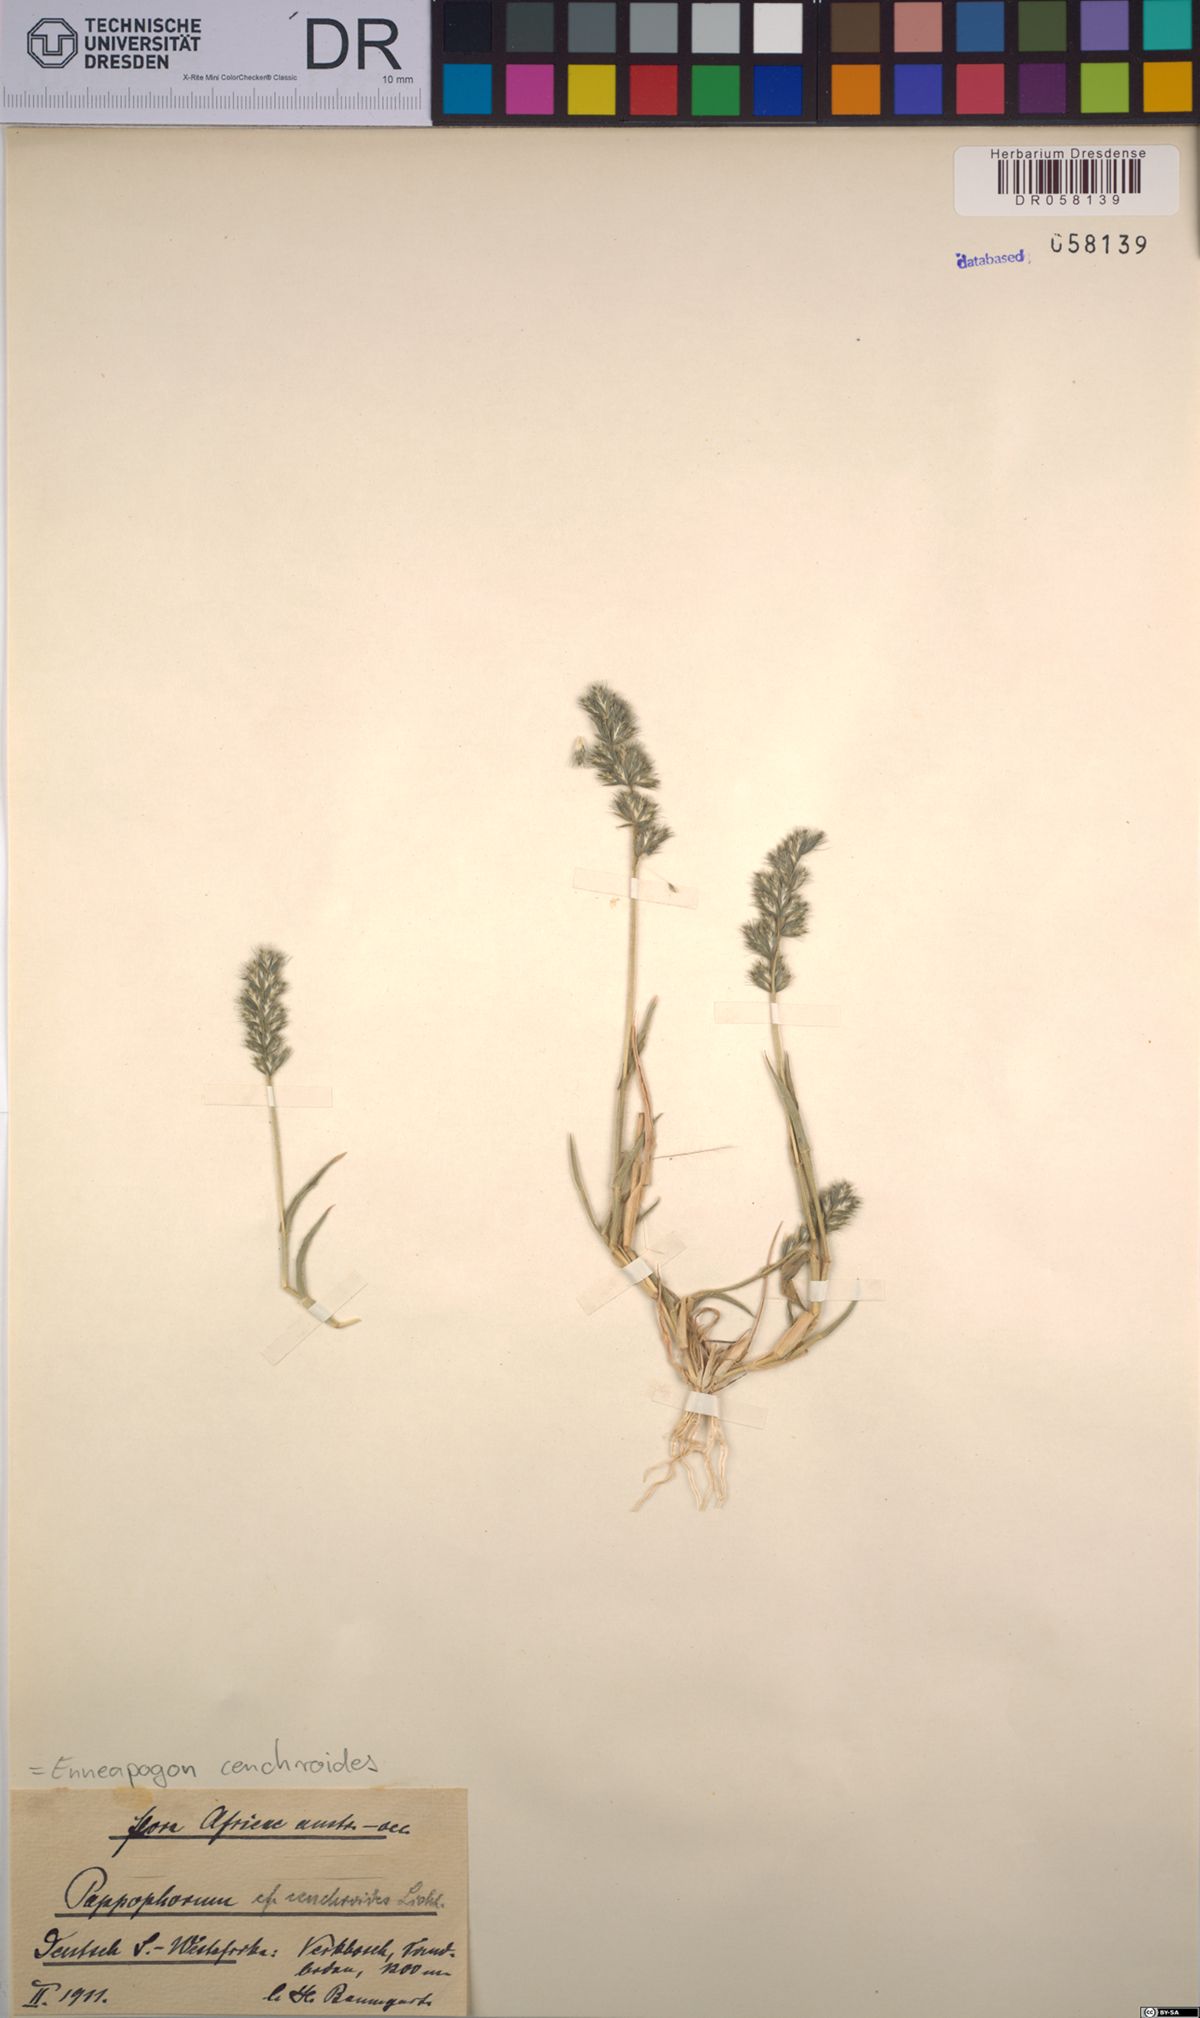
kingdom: Plantae
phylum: Tracheophyta
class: Liliopsida
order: Poales
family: Poaceae
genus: Enneapogon
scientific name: Enneapogon cenchroides
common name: Soft feather pappusgrass
